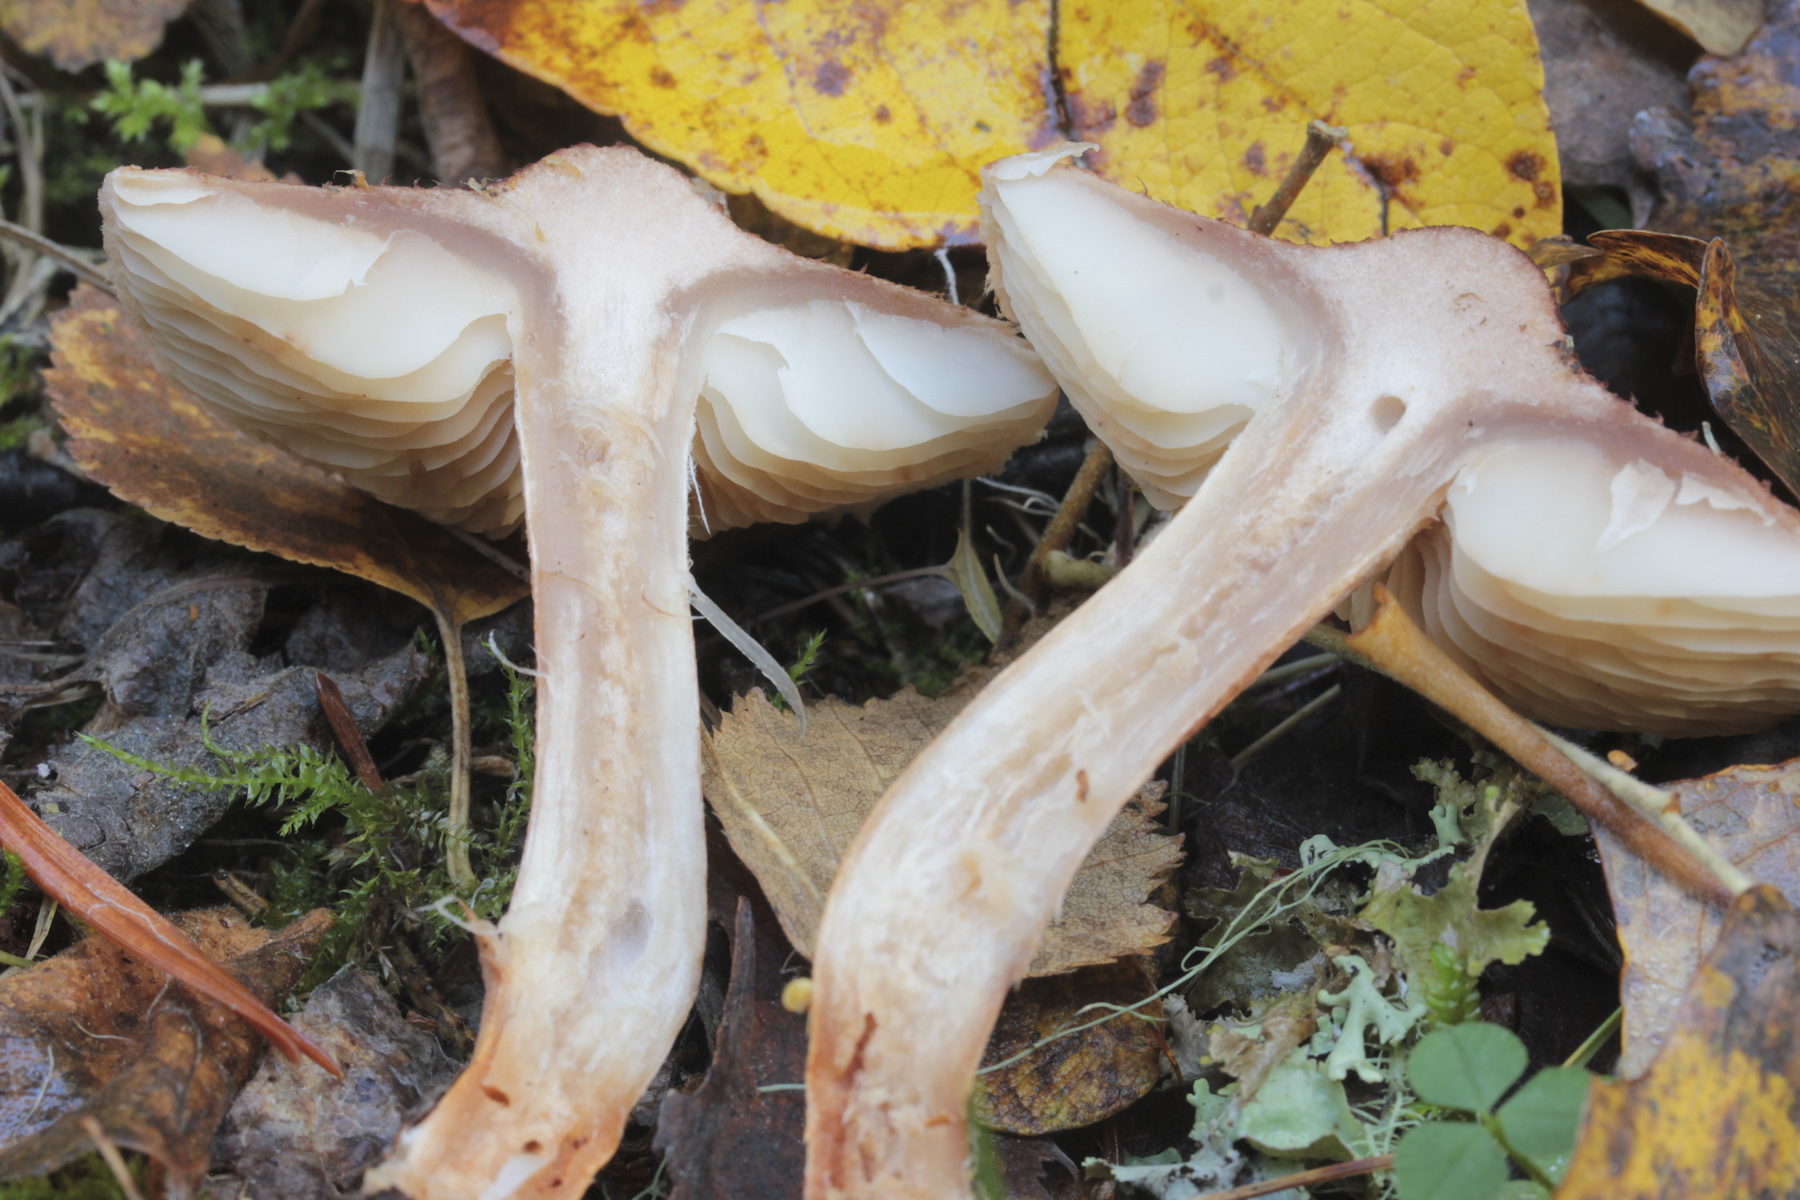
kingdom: Fungi
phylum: Basidiomycota
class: Agaricomycetes
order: Agaricales
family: Tricholomataceae
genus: Tricholoma
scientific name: Tricholoma vaccinum
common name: Scaly knight
